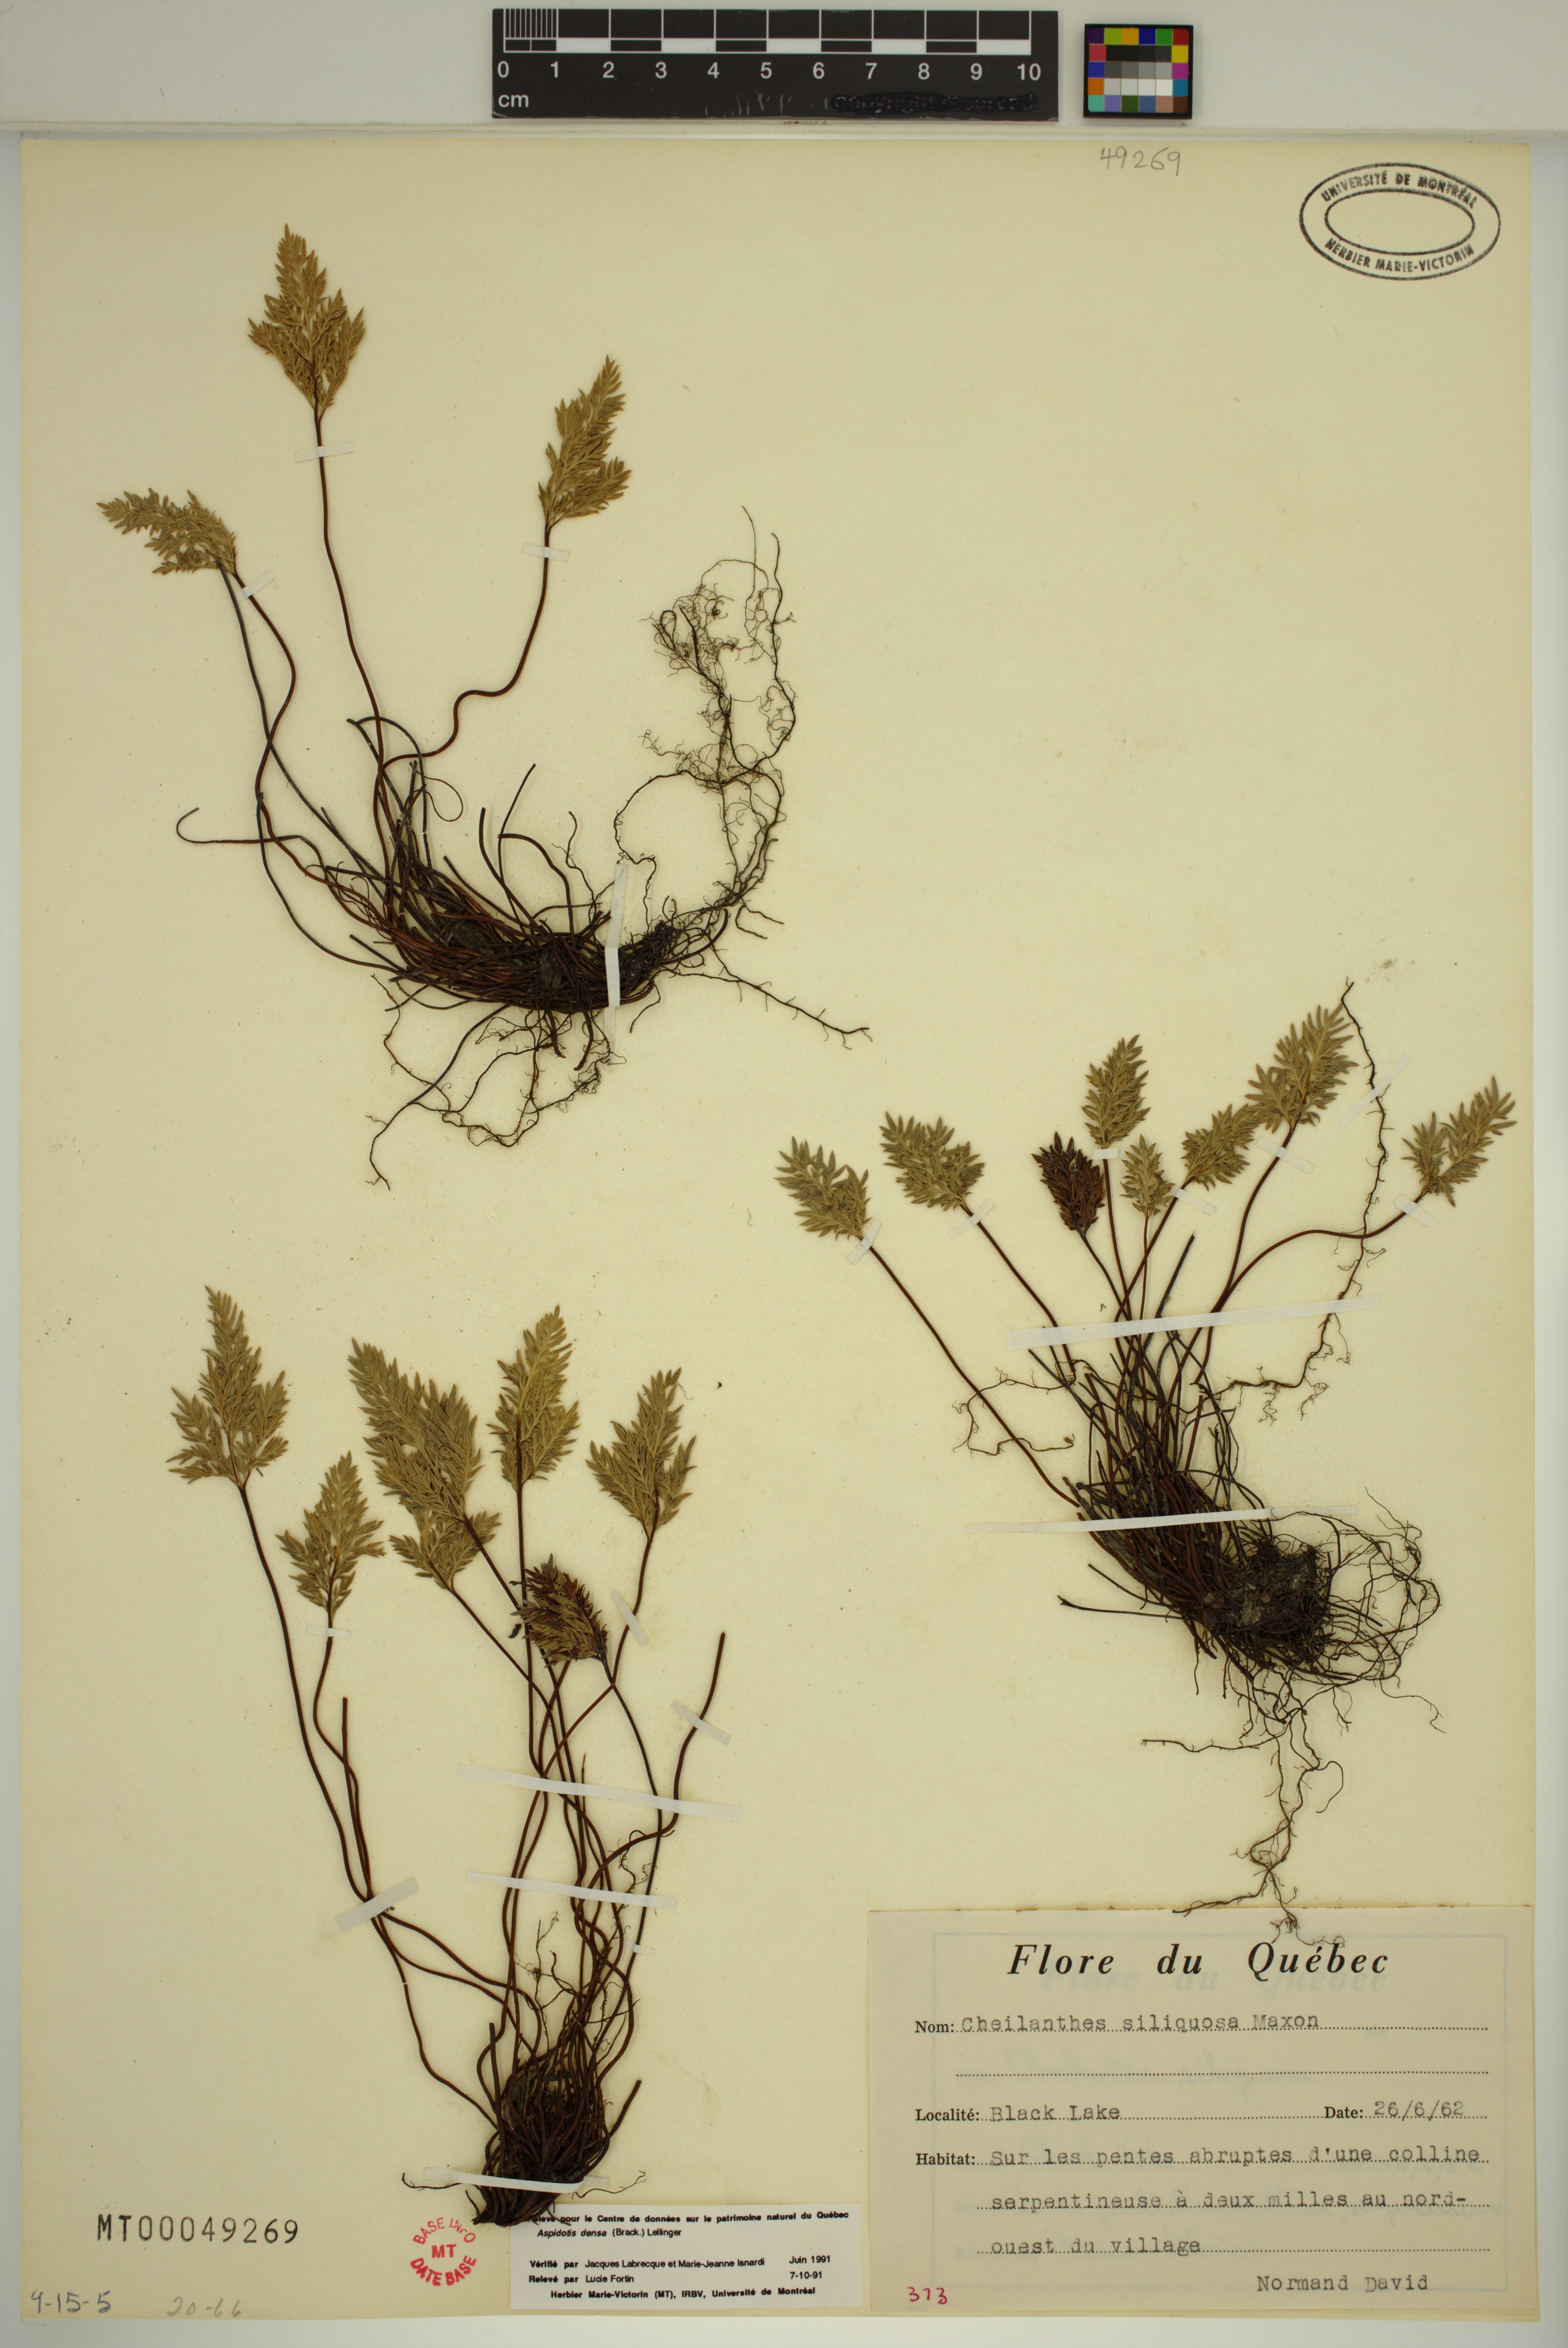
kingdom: Plantae
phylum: Tracheophyta
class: Polypodiopsida
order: Polypodiales
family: Pteridaceae
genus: Aspidotis
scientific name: Aspidotis densa
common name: Indian's dream
